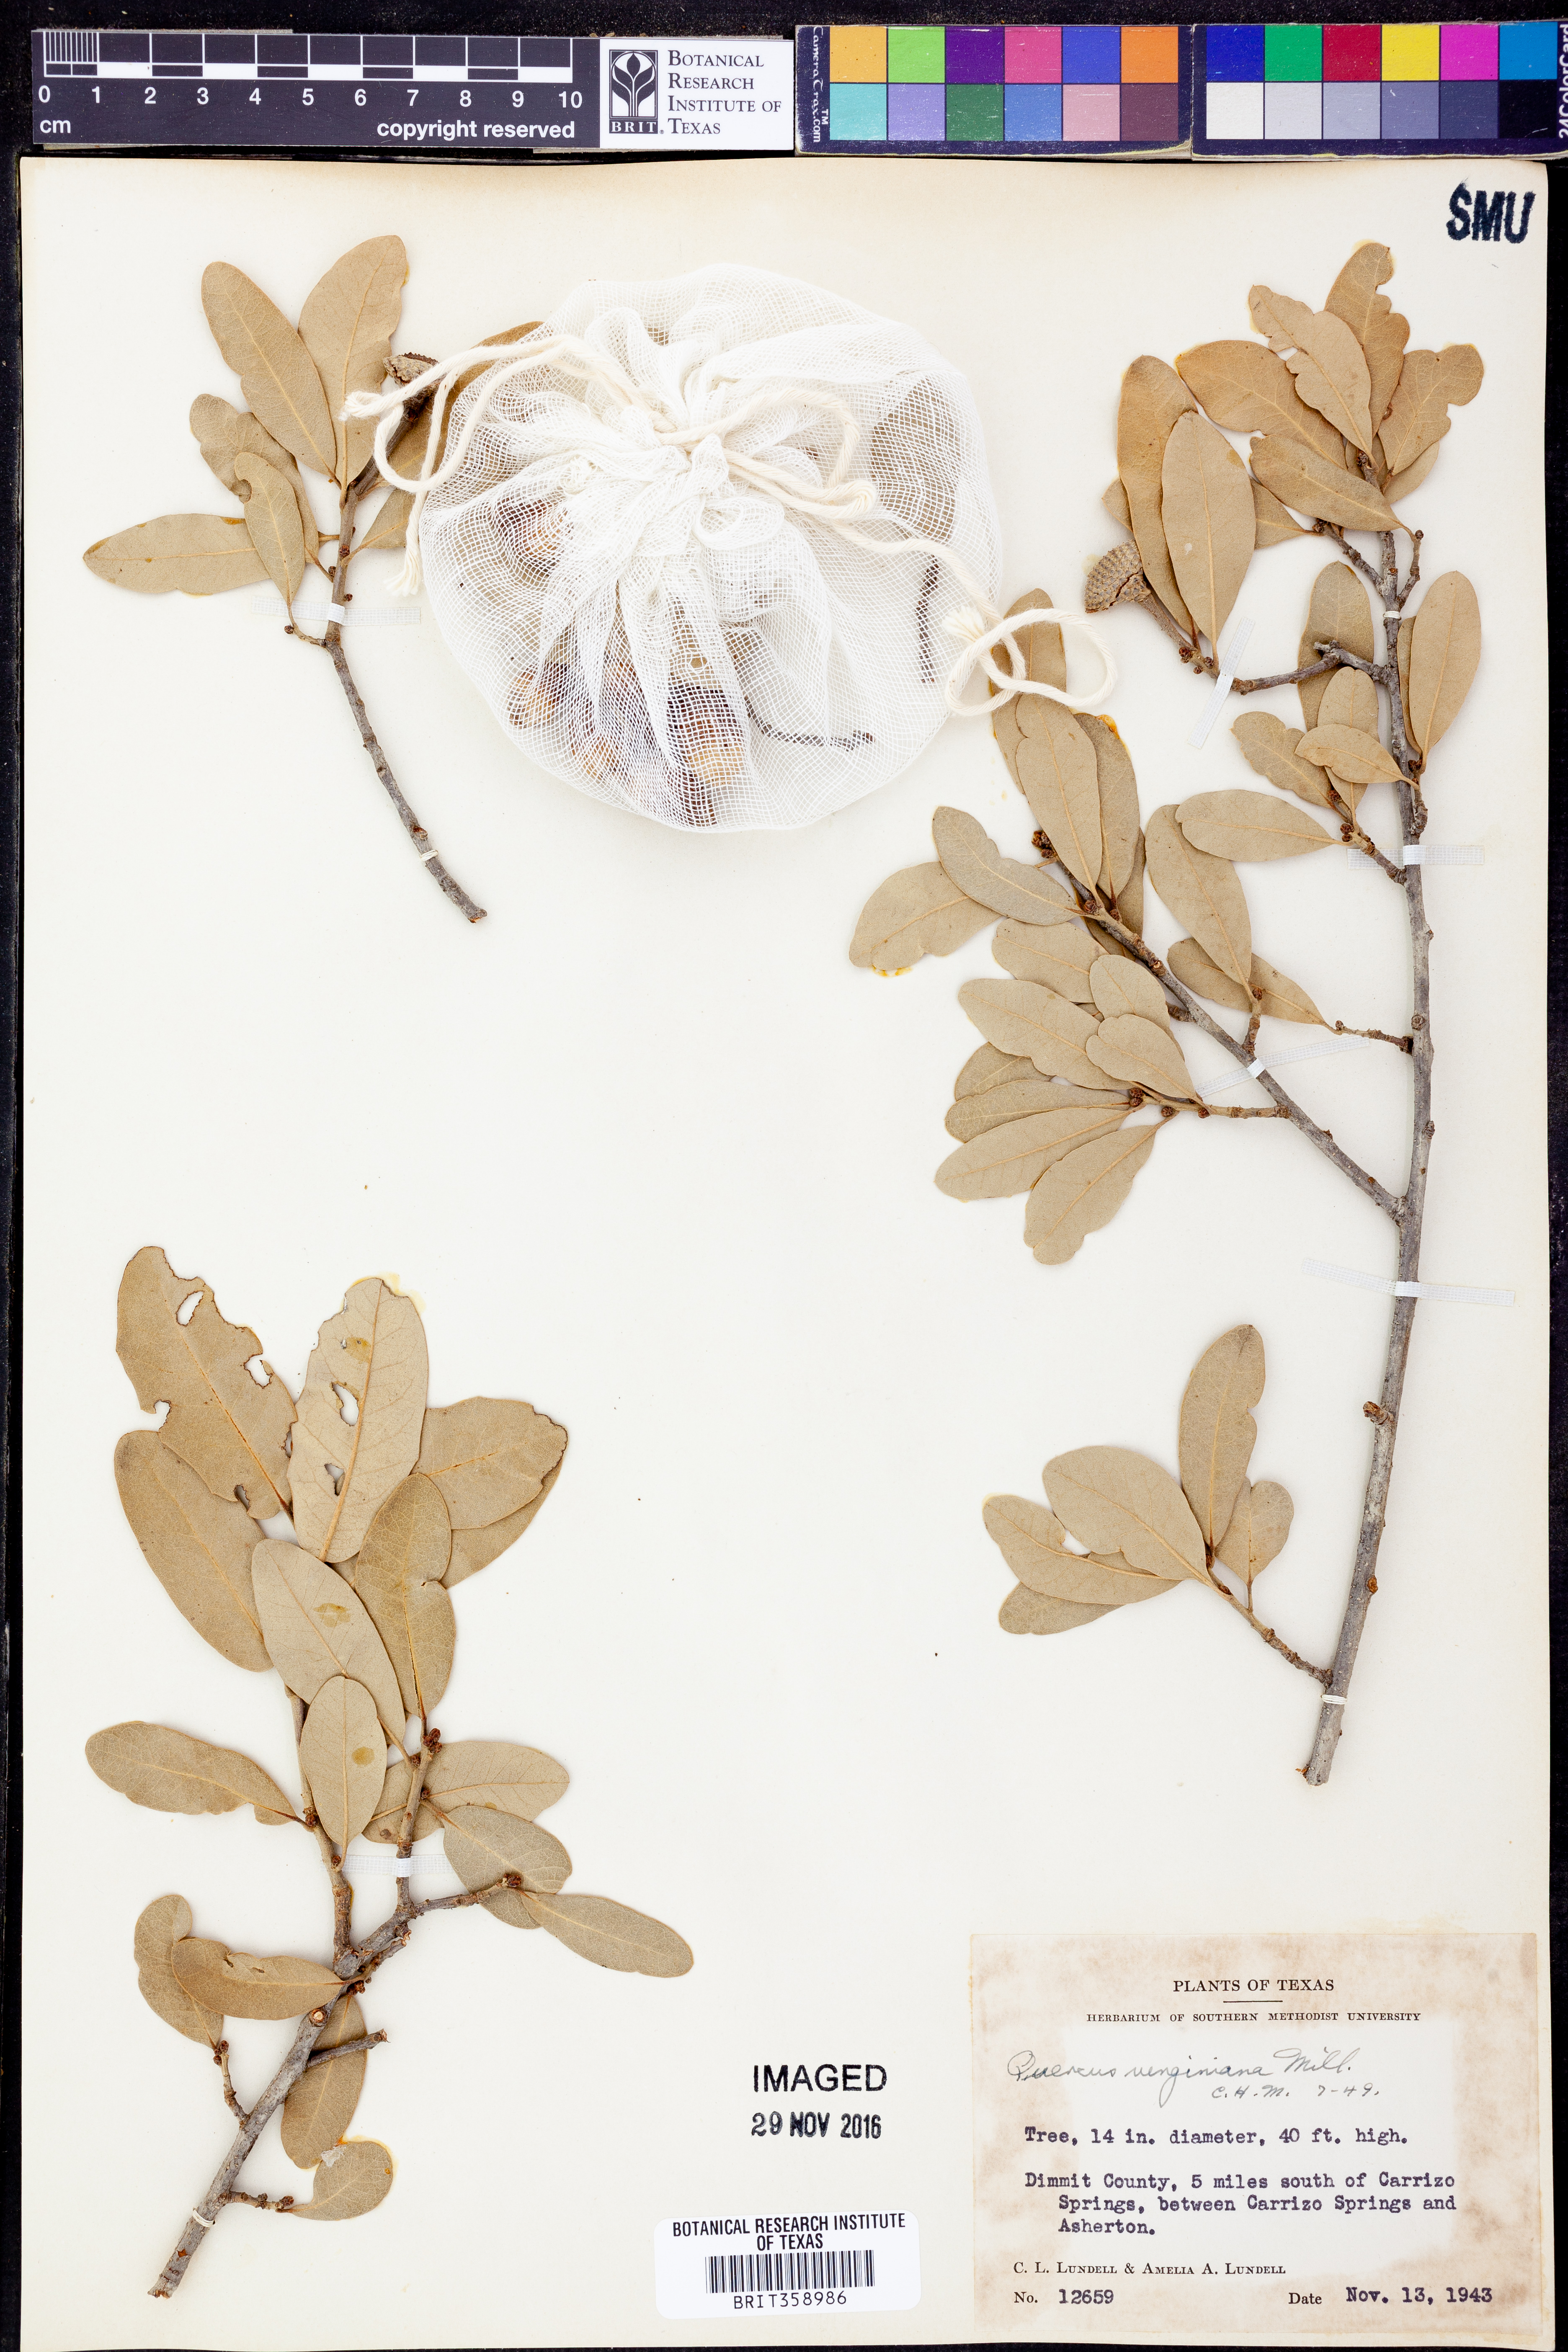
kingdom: Plantae
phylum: Tracheophyta
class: Magnoliopsida
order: Fagales
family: Fagaceae
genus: Quercus
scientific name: Quercus virginiana
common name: Southern live oak
